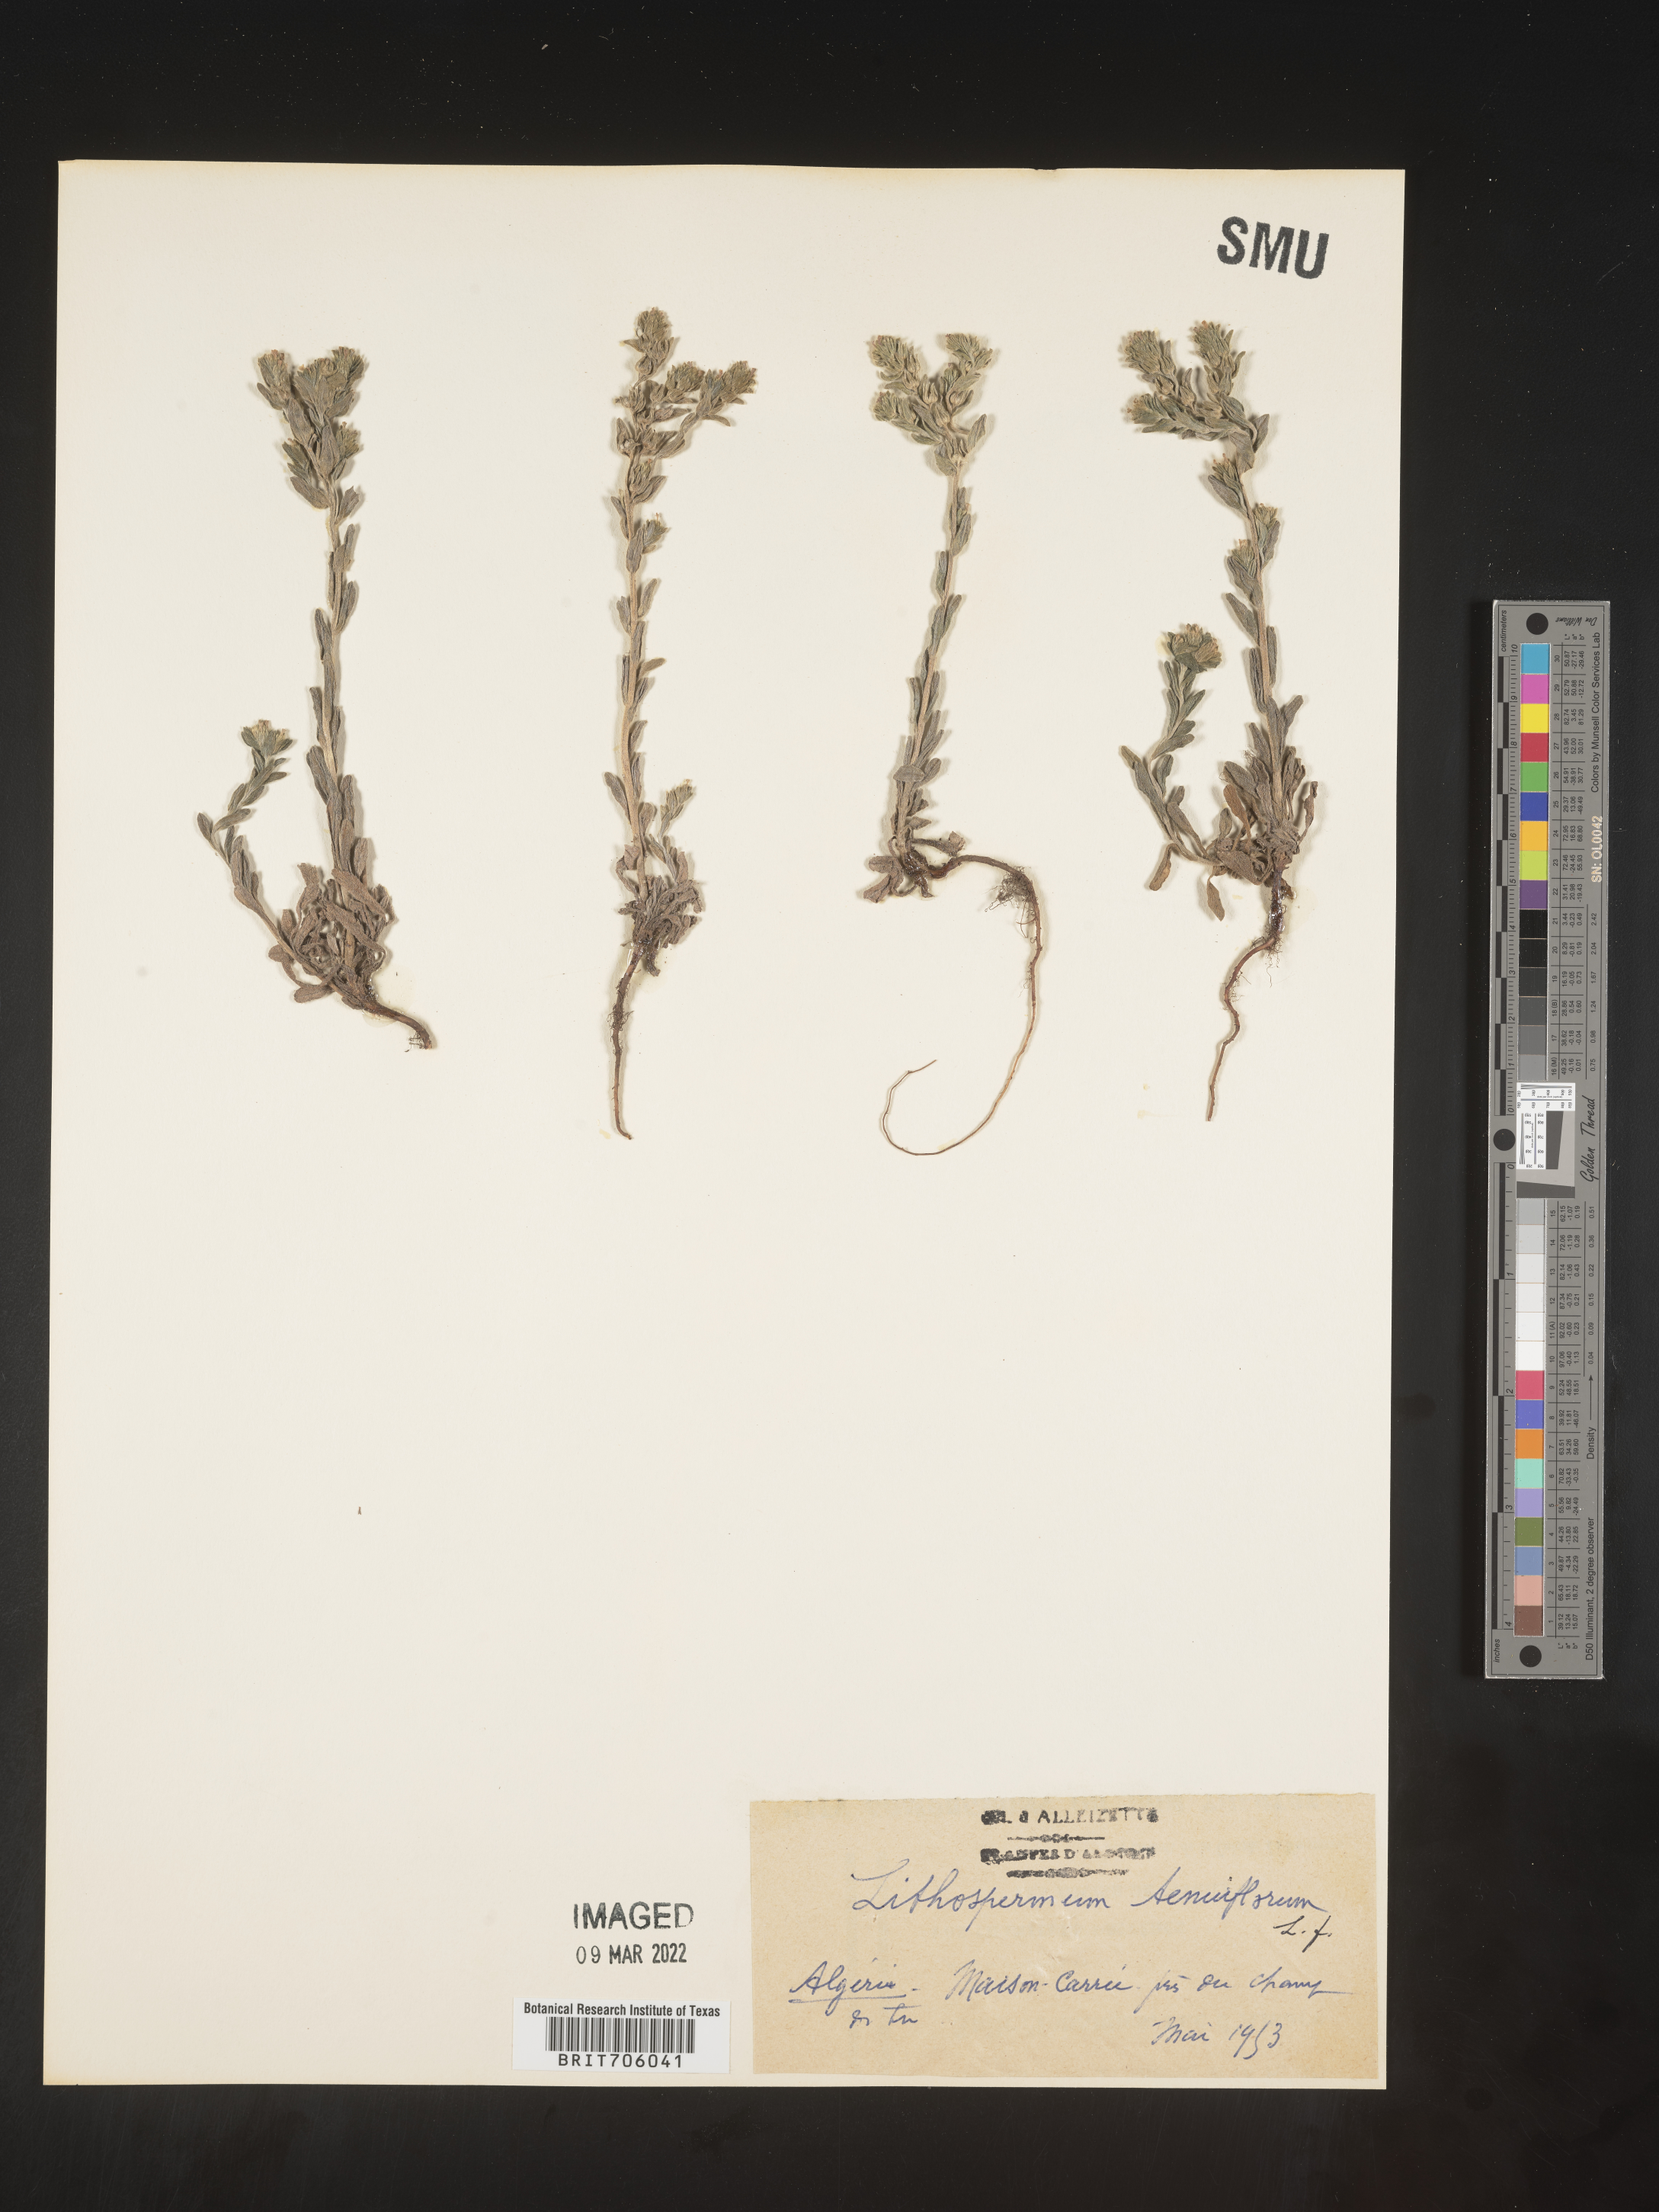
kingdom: Plantae
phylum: Tracheophyta
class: Magnoliopsida
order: Boraginales
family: Boraginaceae
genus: Lithospermum
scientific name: Lithospermum
